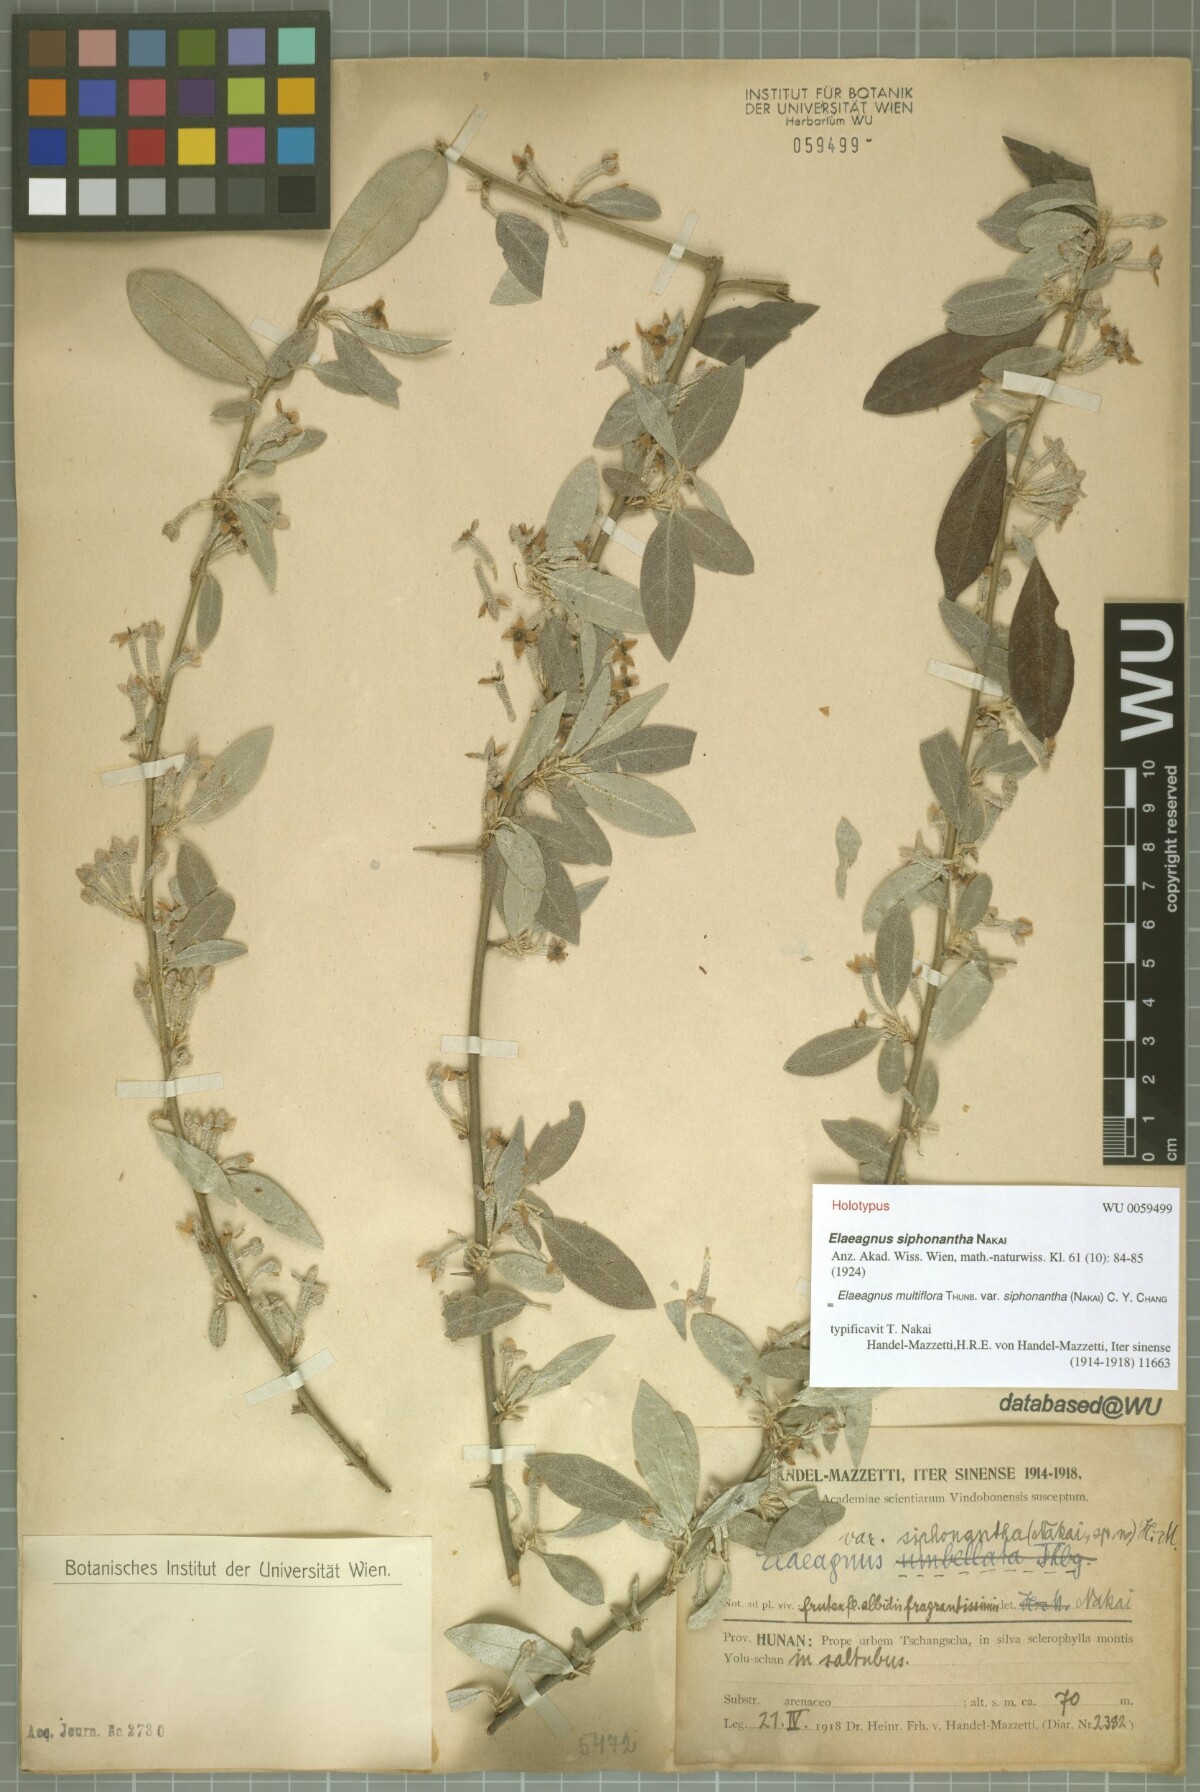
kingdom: Plantae
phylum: Tracheophyta
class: Magnoliopsida
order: Rosales
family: Elaeagnaceae
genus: Elaeagnus
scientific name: Elaeagnus multiflora
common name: Cherry elaeagnus
